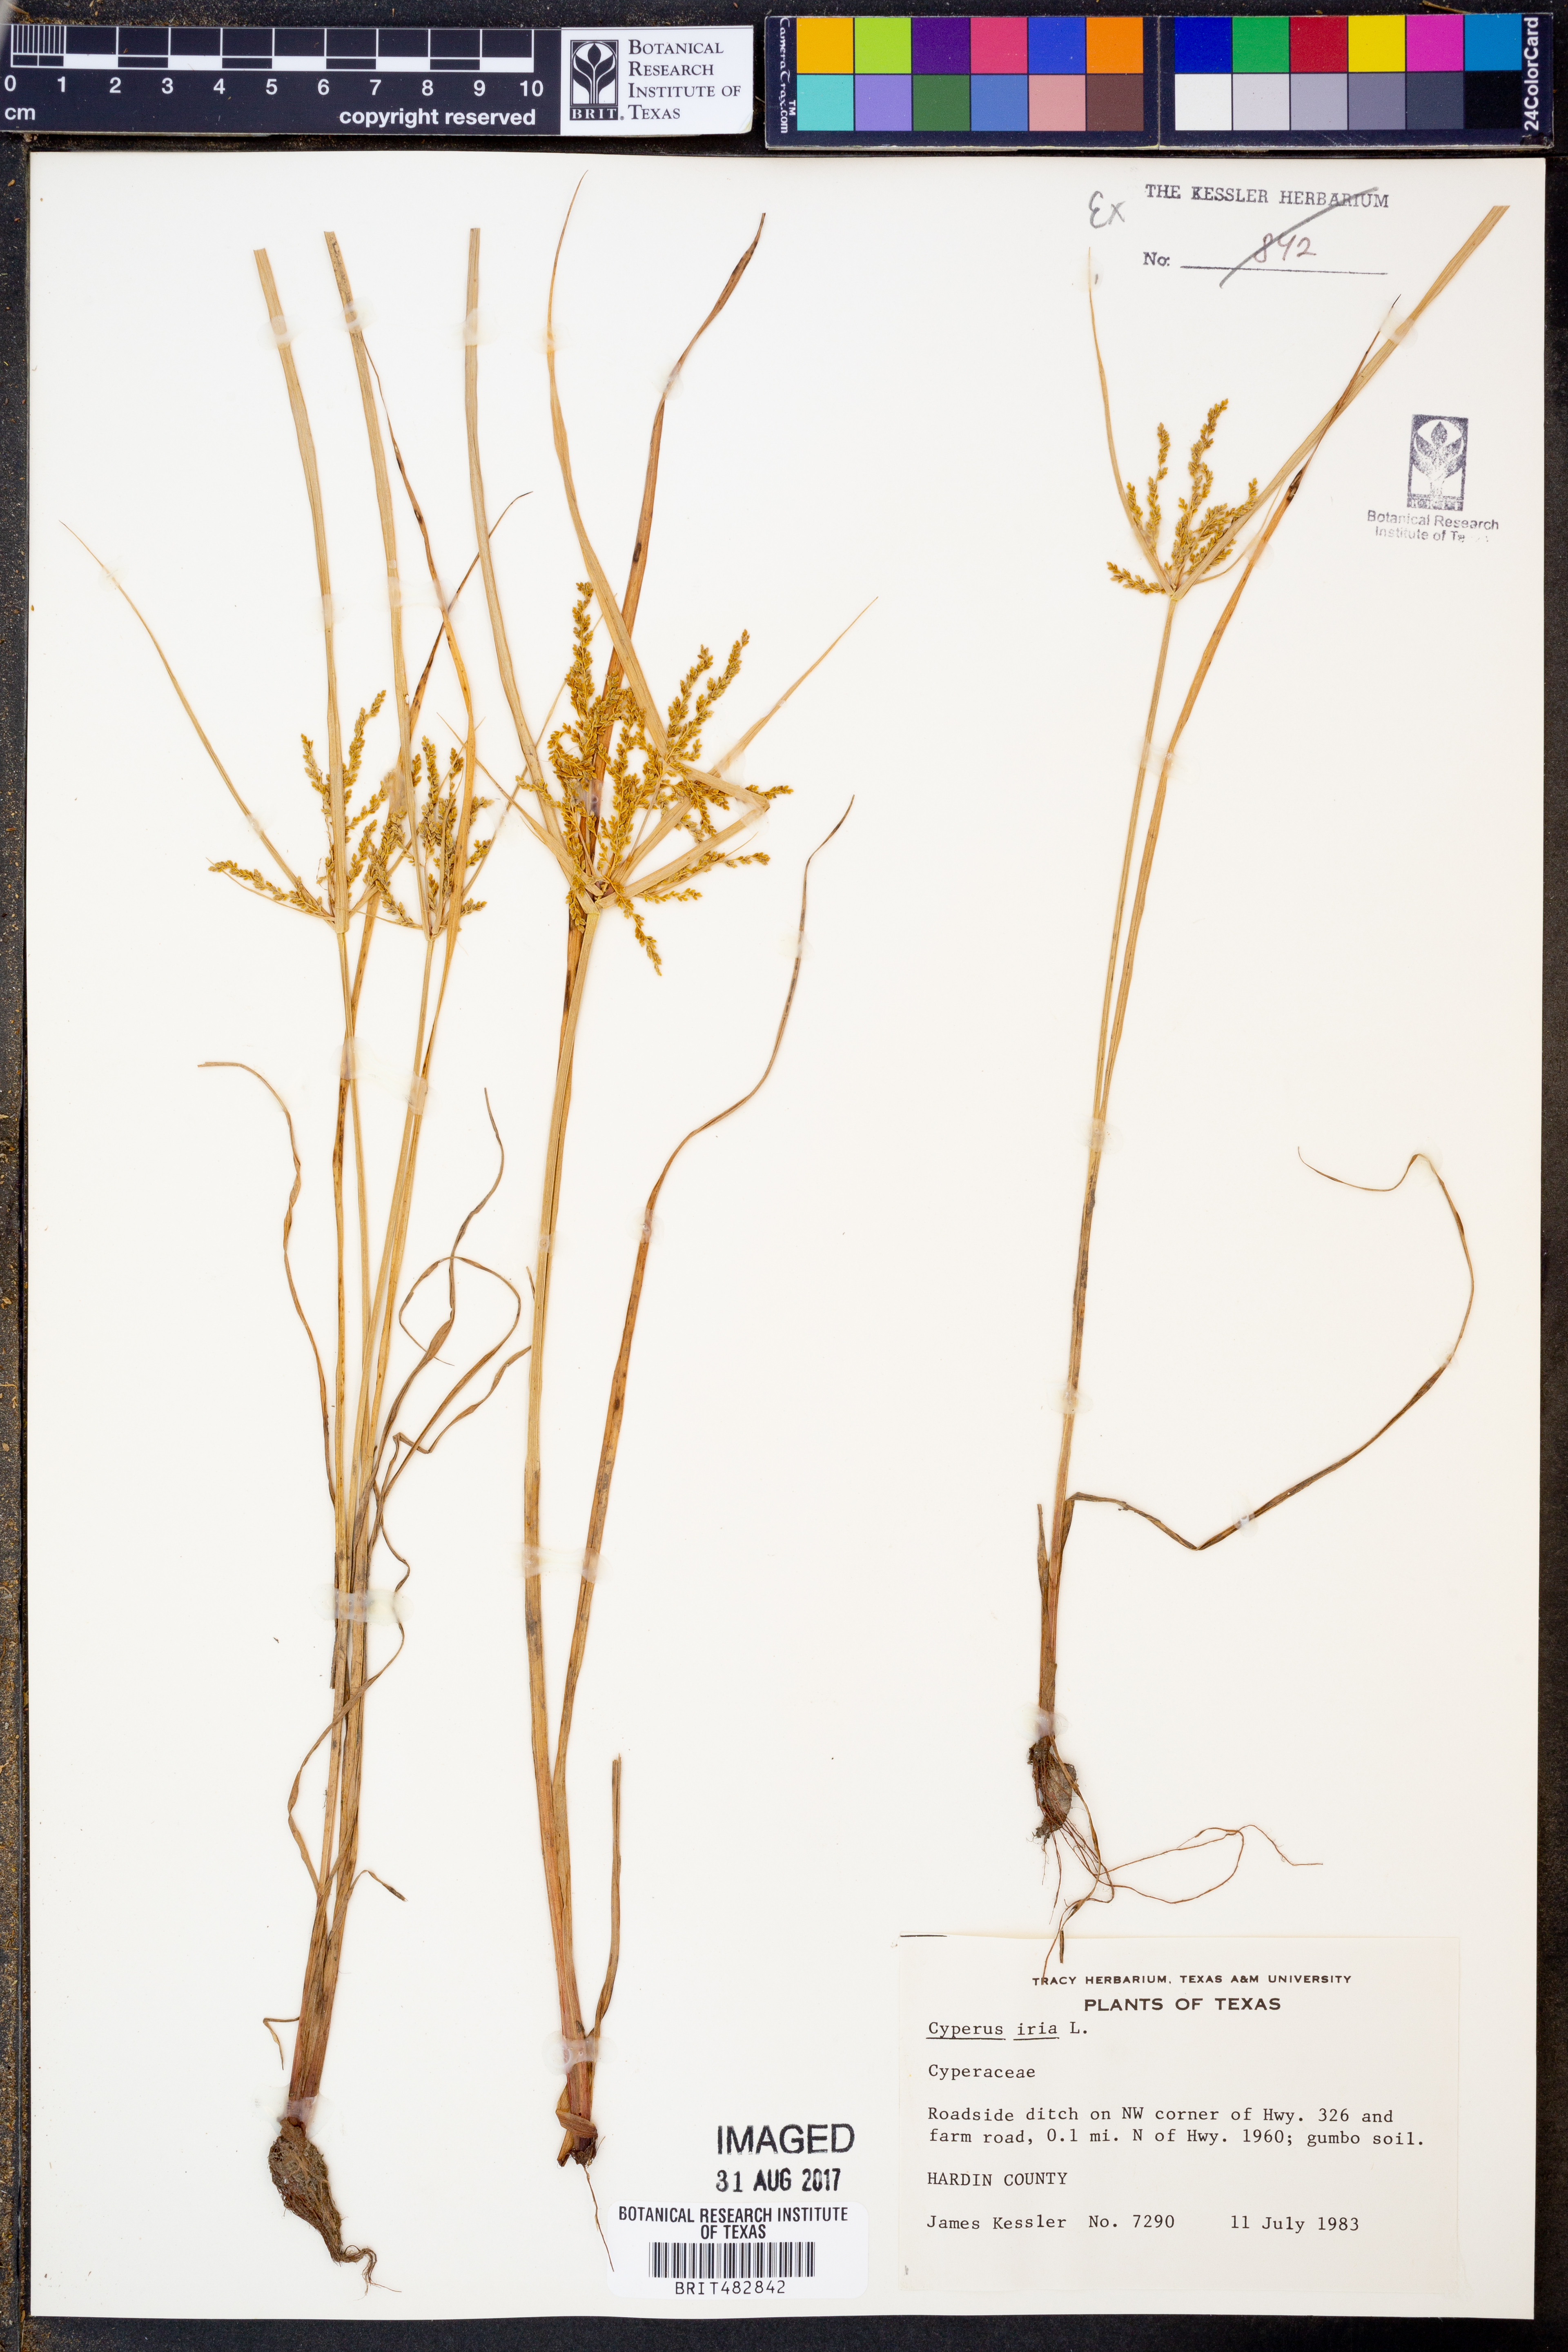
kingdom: Plantae
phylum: Tracheophyta
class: Liliopsida
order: Poales
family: Cyperaceae
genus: Cyperus
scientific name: Cyperus iria
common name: Ricefield flatsedge
